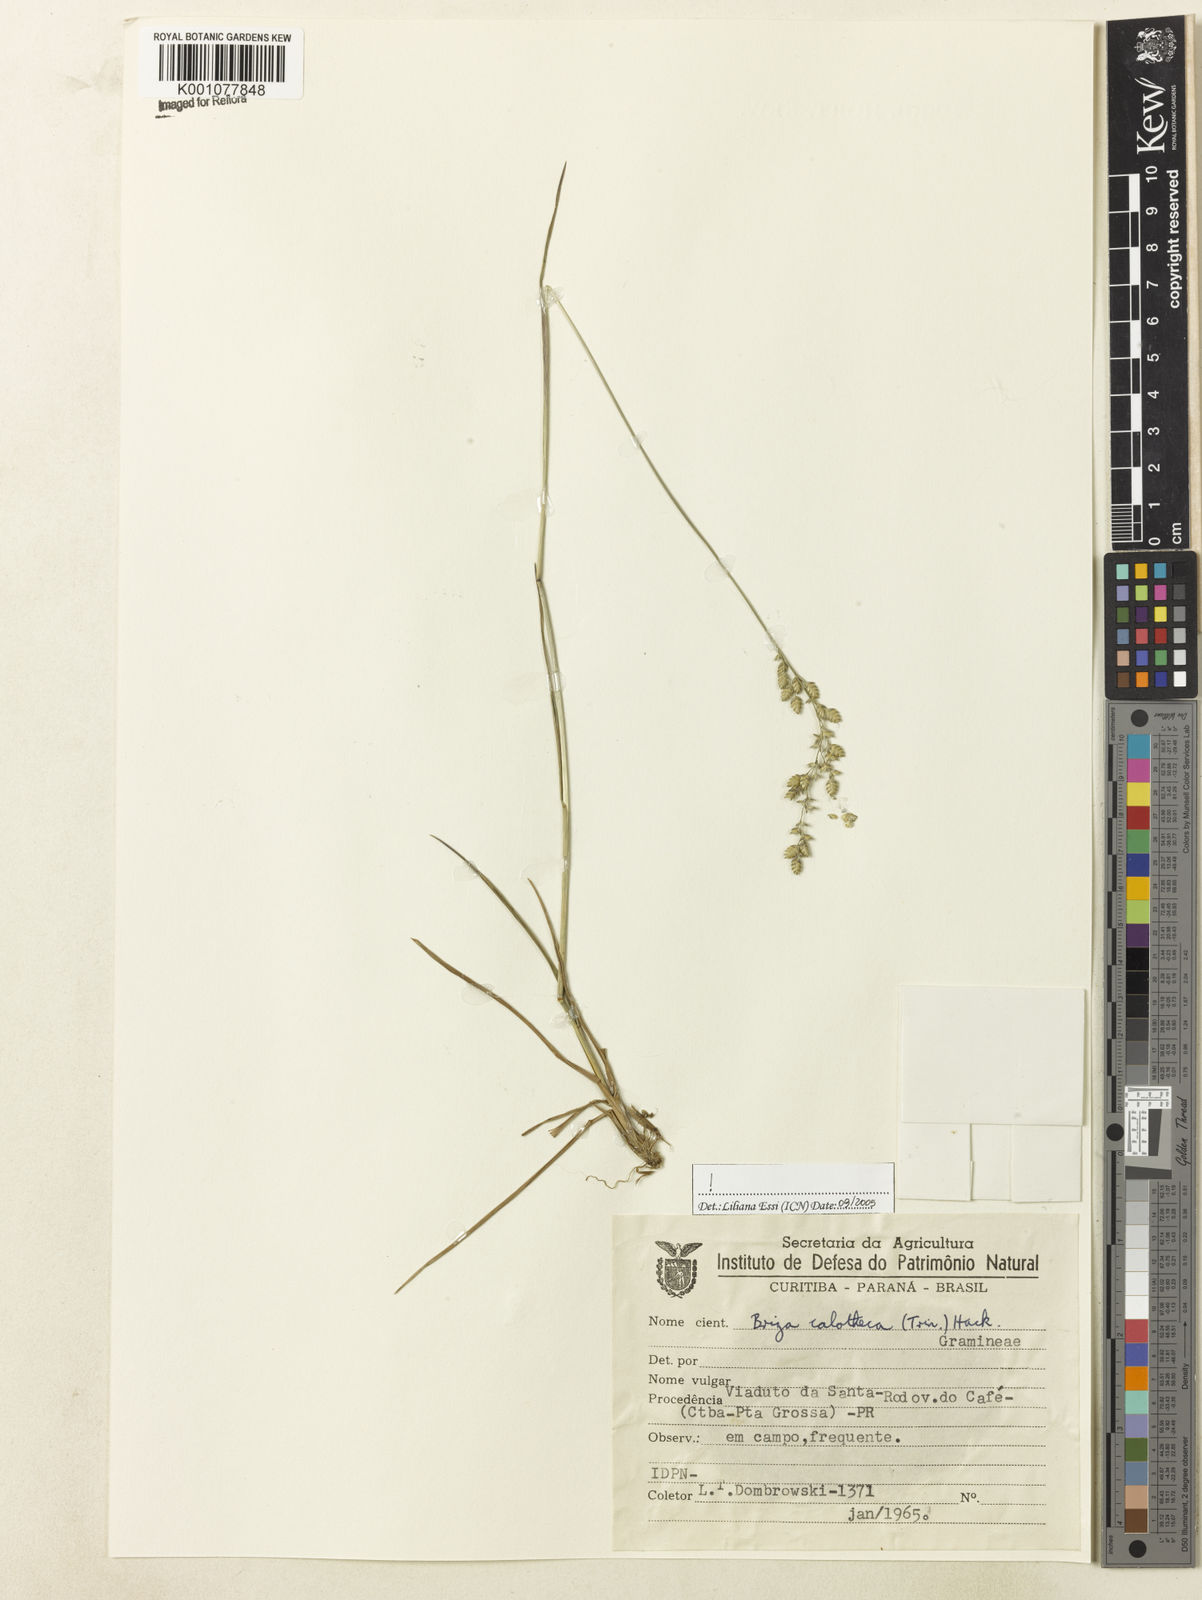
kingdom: Plantae
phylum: Tracheophyta
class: Liliopsida
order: Poales
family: Poaceae
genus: Poidium
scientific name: Poidium calotheca
